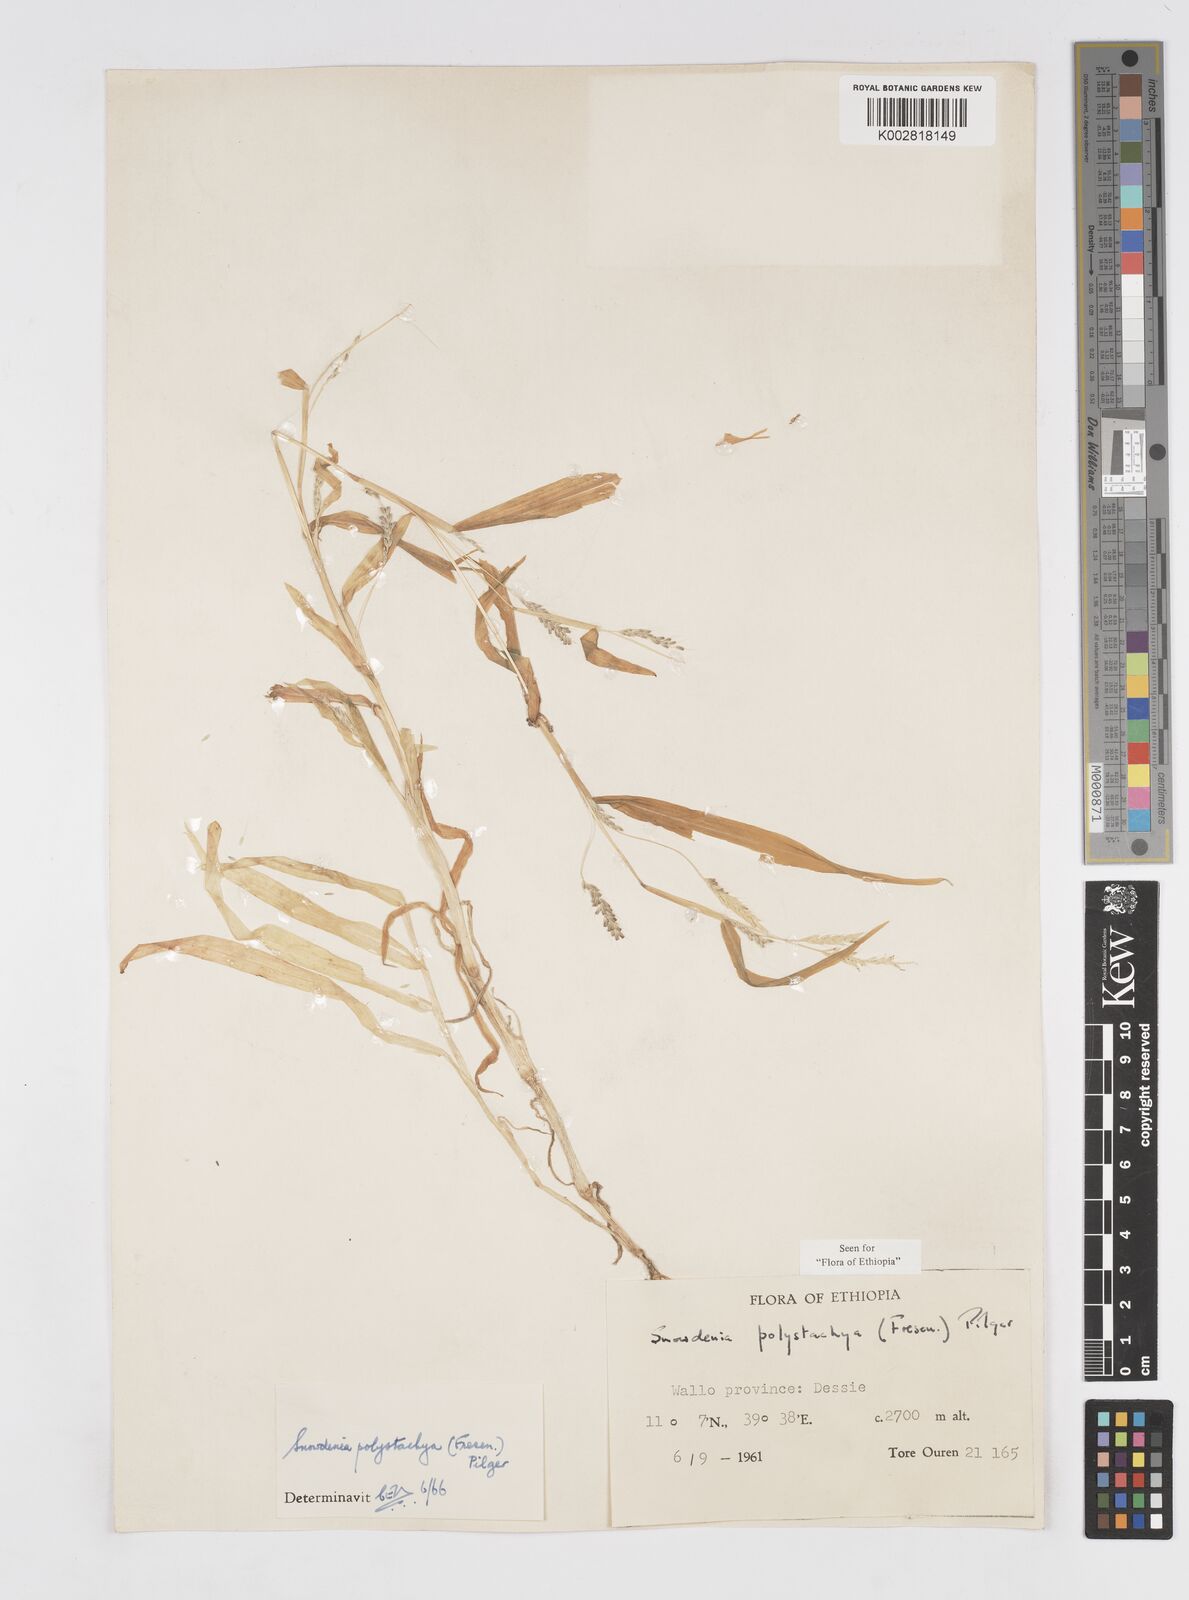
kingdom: Plantae
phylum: Tracheophyta
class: Liliopsida
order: Poales
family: Poaceae
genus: Snowdenia
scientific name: Snowdenia polystachya
